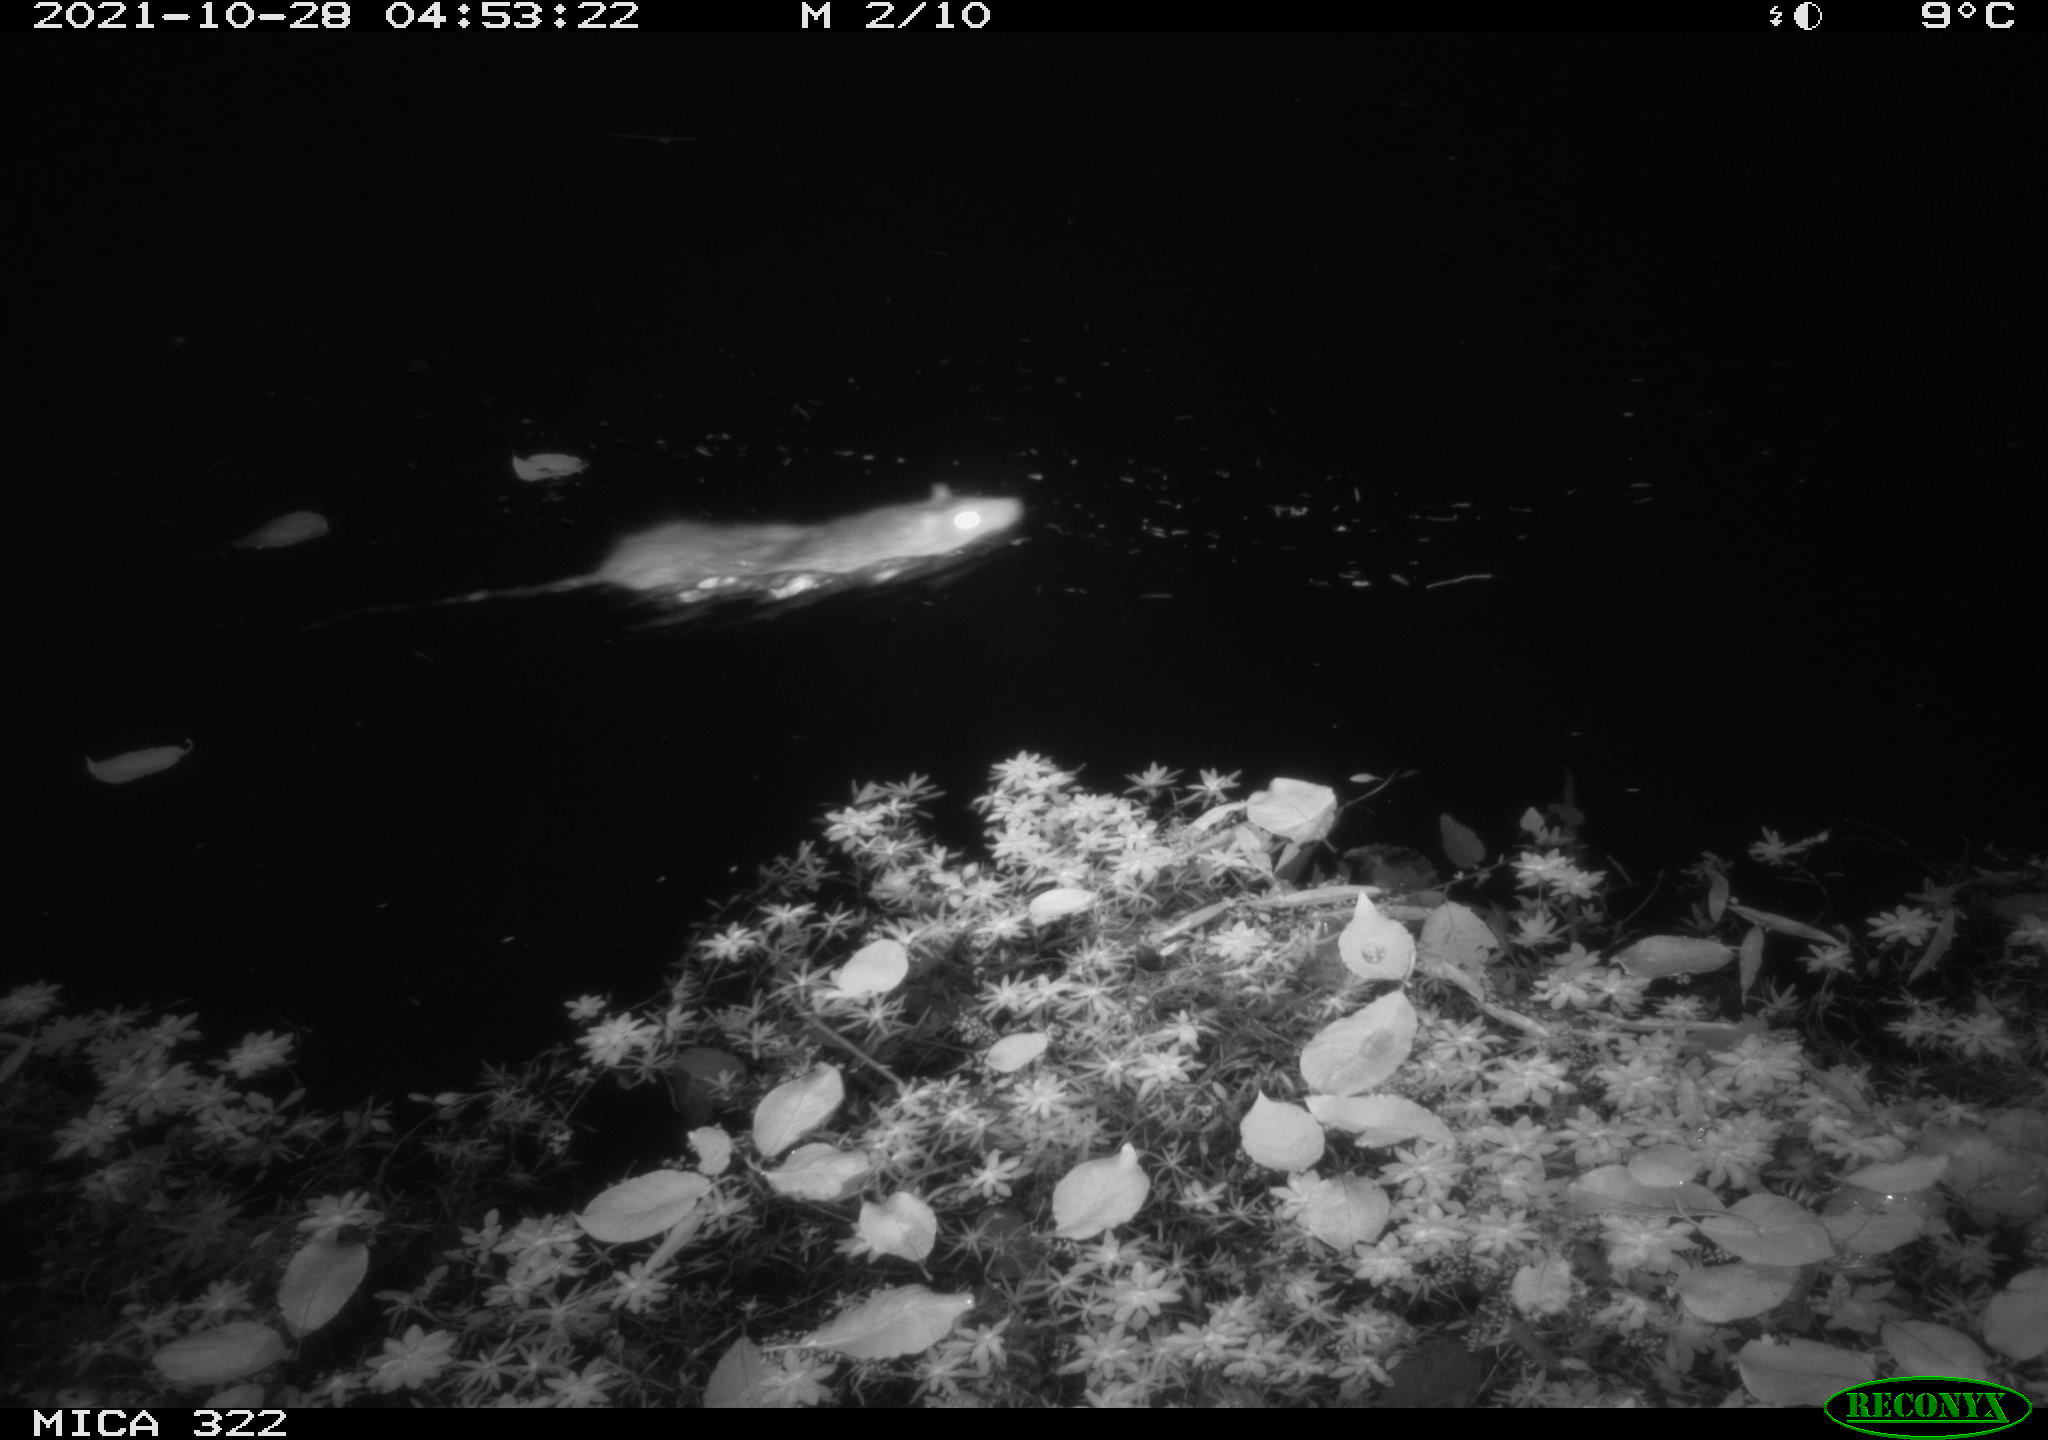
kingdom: Animalia
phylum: Chordata
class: Mammalia
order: Rodentia
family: Muridae
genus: Rattus
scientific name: Rattus norvegicus
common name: Brown rat
